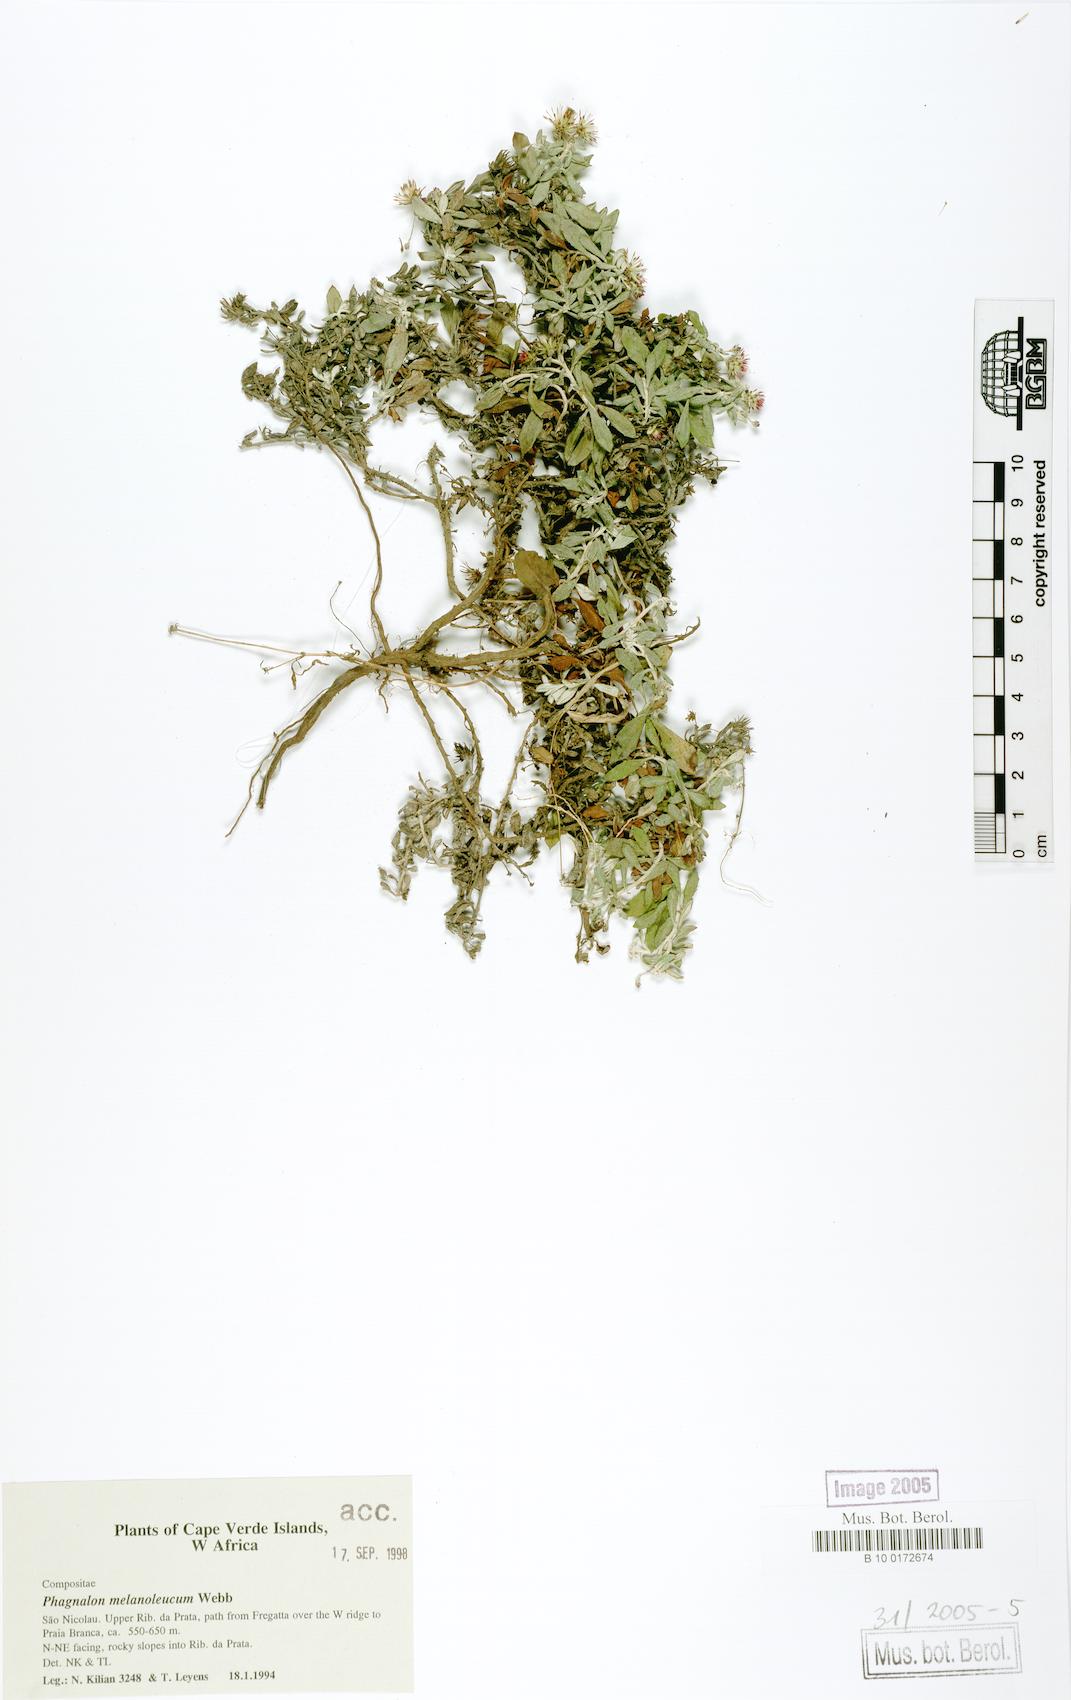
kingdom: Plantae
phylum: Tracheophyta
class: Magnoliopsida
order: Asterales
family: Asteraceae
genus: Phagnalon
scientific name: Phagnalon melanoleucum
